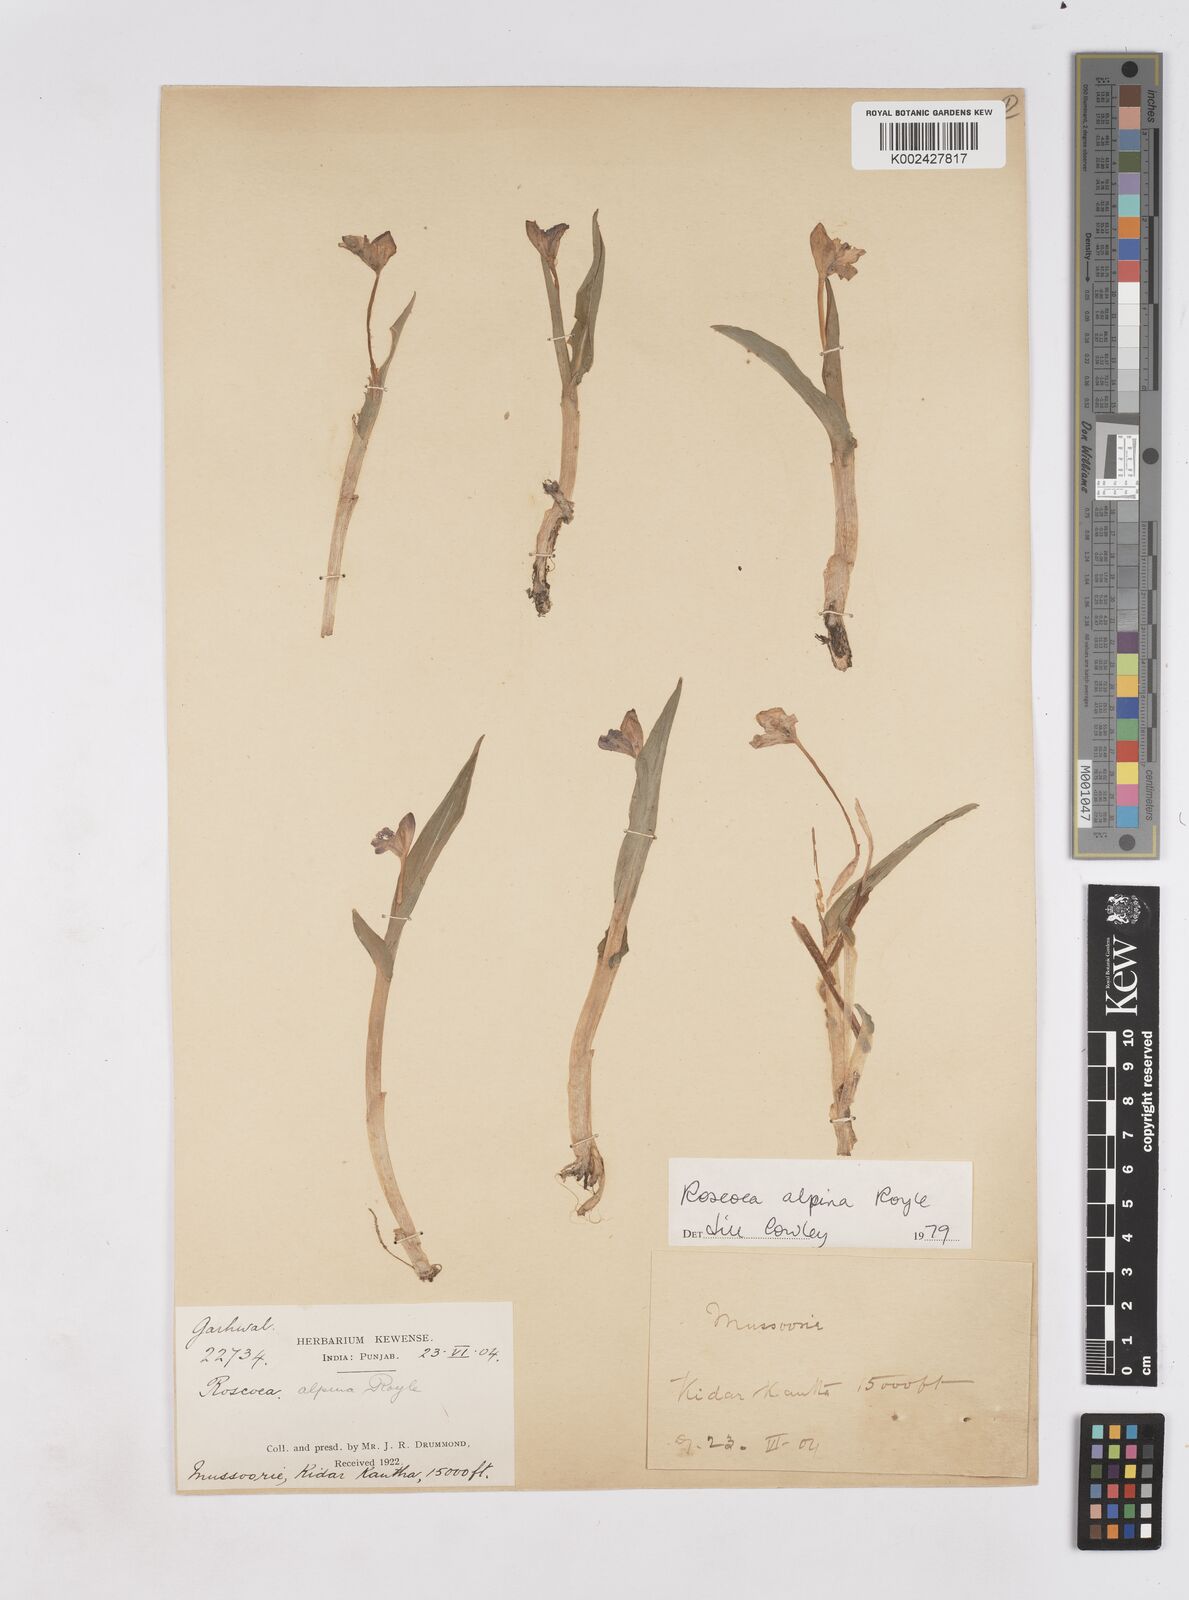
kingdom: Plantae
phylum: Tracheophyta
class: Liliopsida
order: Zingiberales
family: Zingiberaceae
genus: Roscoea
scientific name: Roscoea alpina
